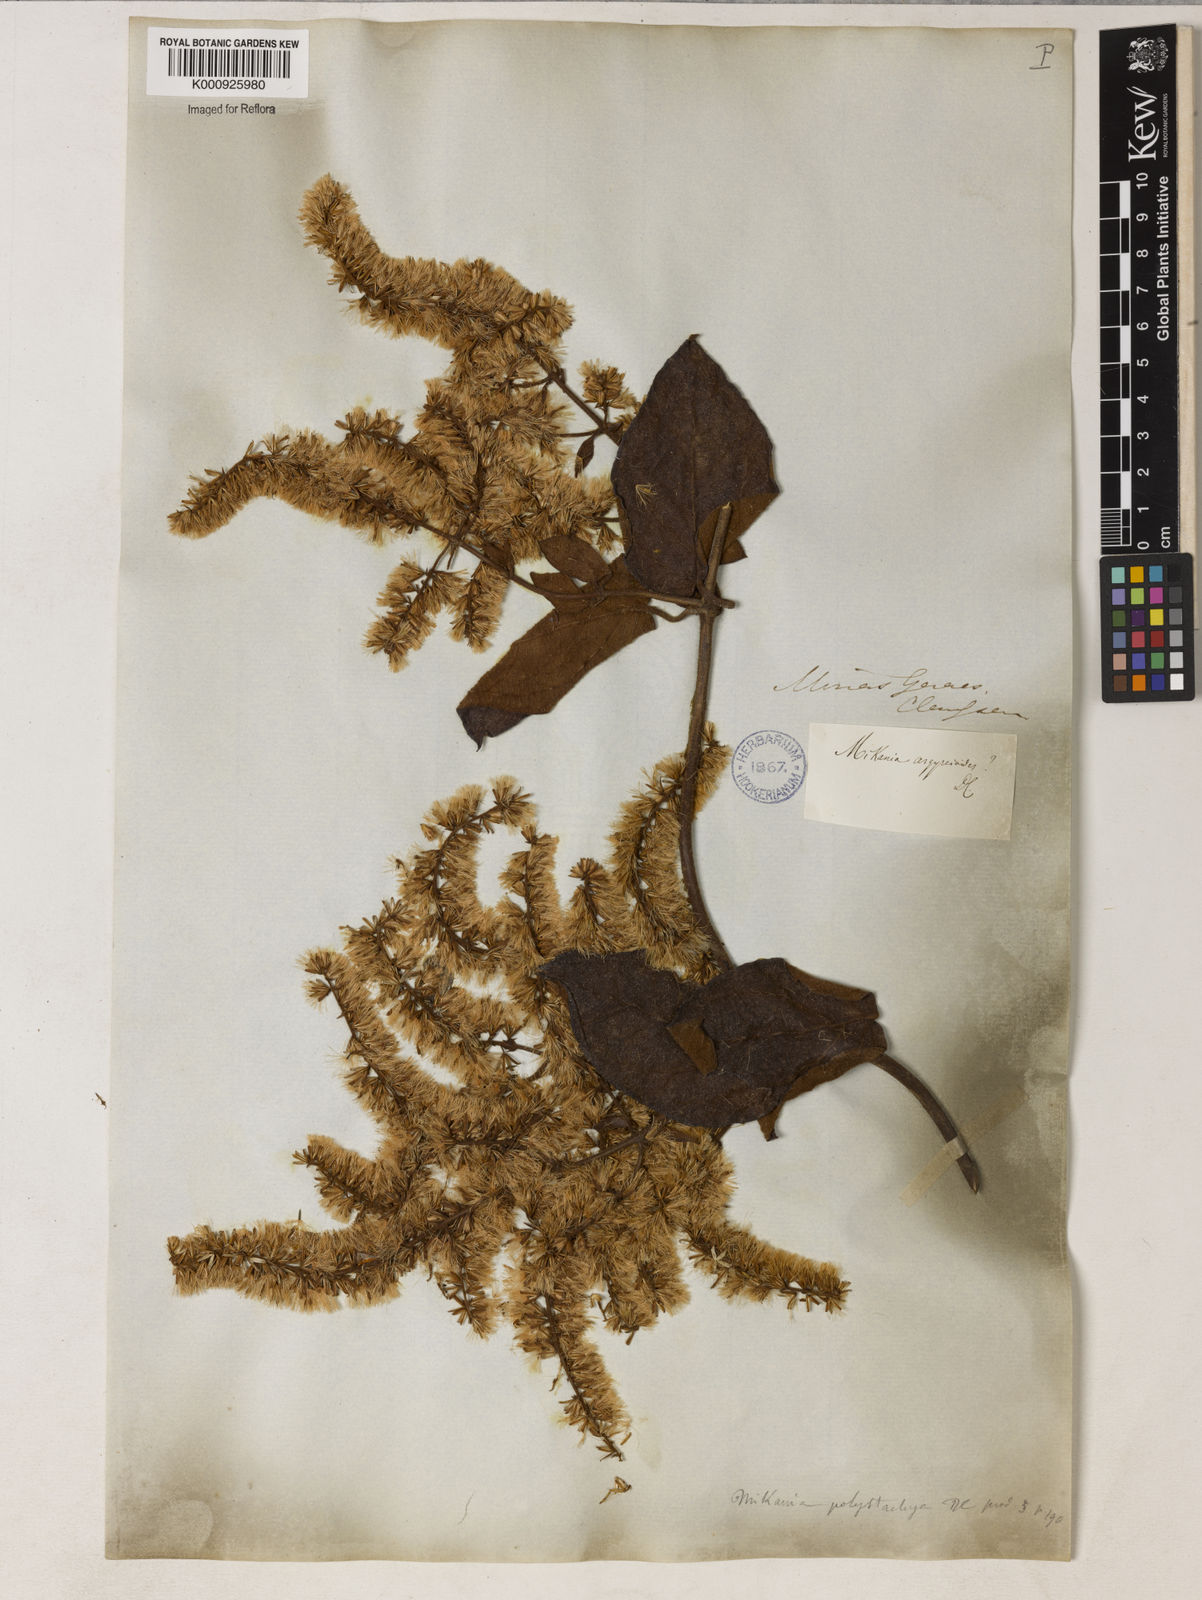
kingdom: Plantae
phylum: Tracheophyta
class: Magnoliopsida
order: Asterales
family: Asteraceae
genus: Mikania
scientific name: Mikania psilostachya
